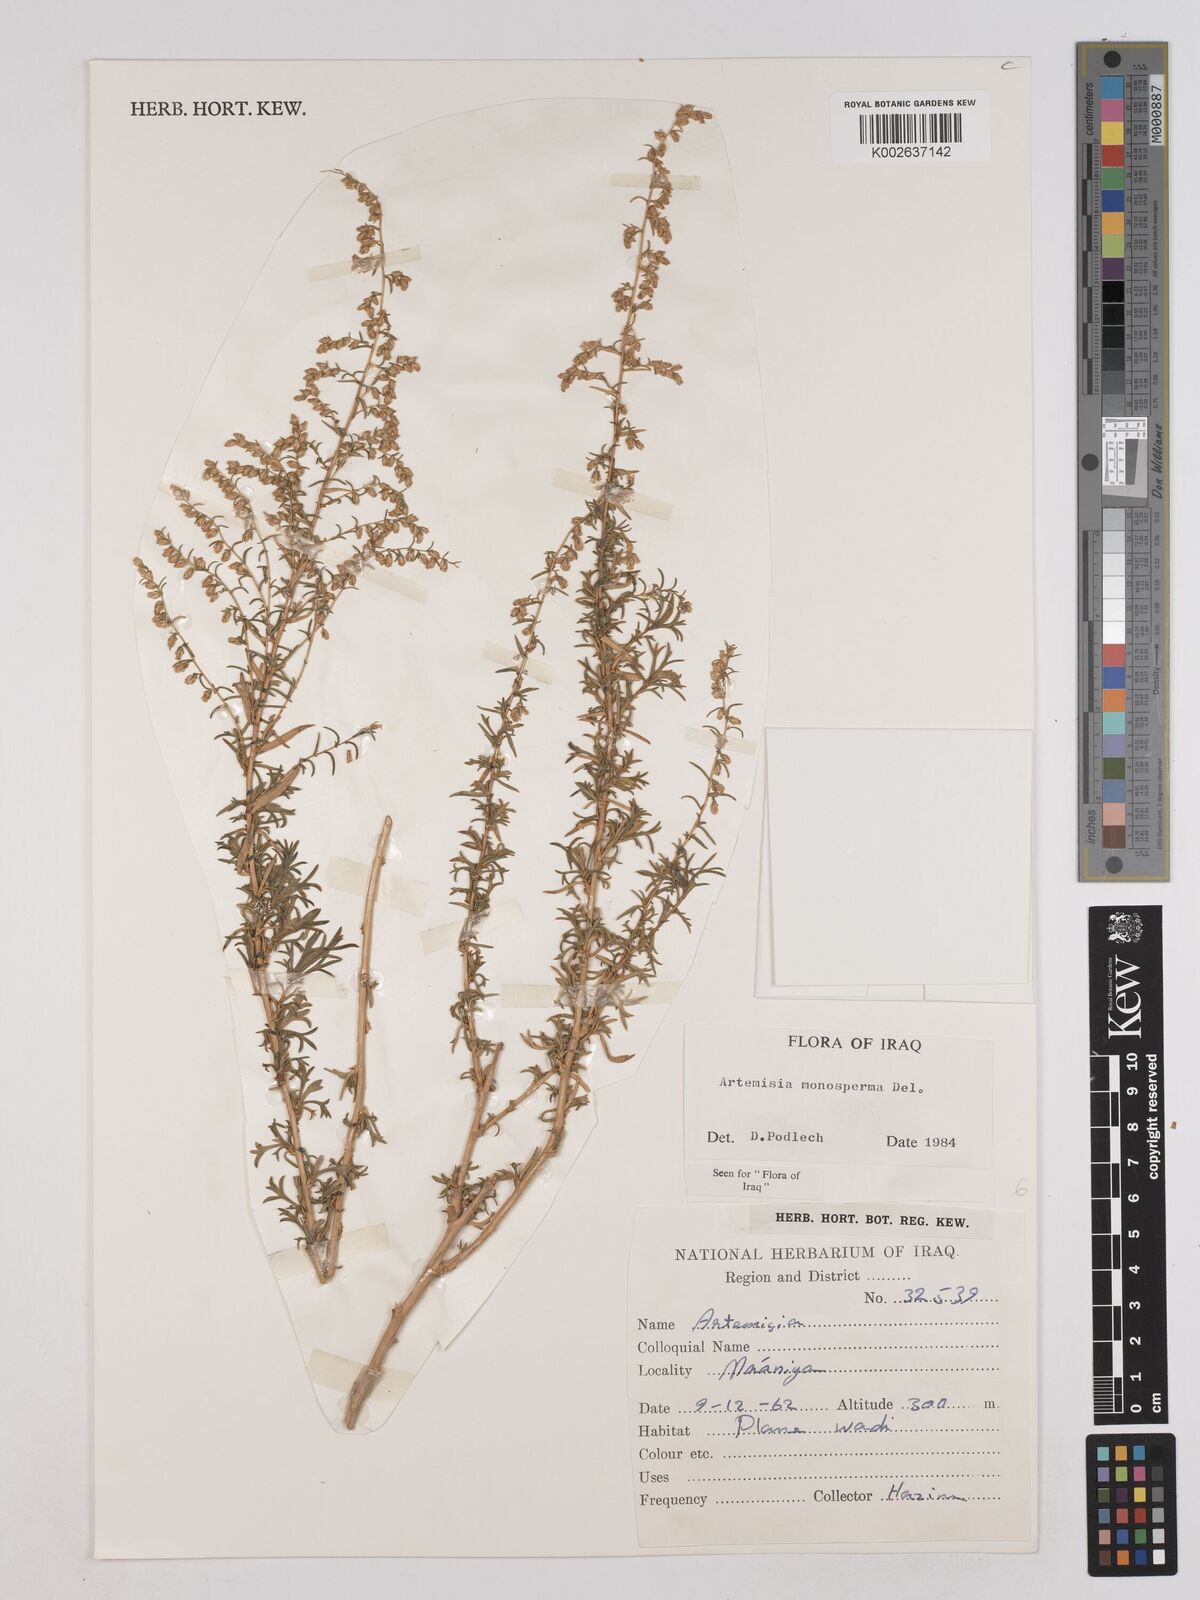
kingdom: Plantae
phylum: Tracheophyta
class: Magnoliopsida
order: Asterales
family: Asteraceae
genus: Artemisia
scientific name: Artemisia monosperma
